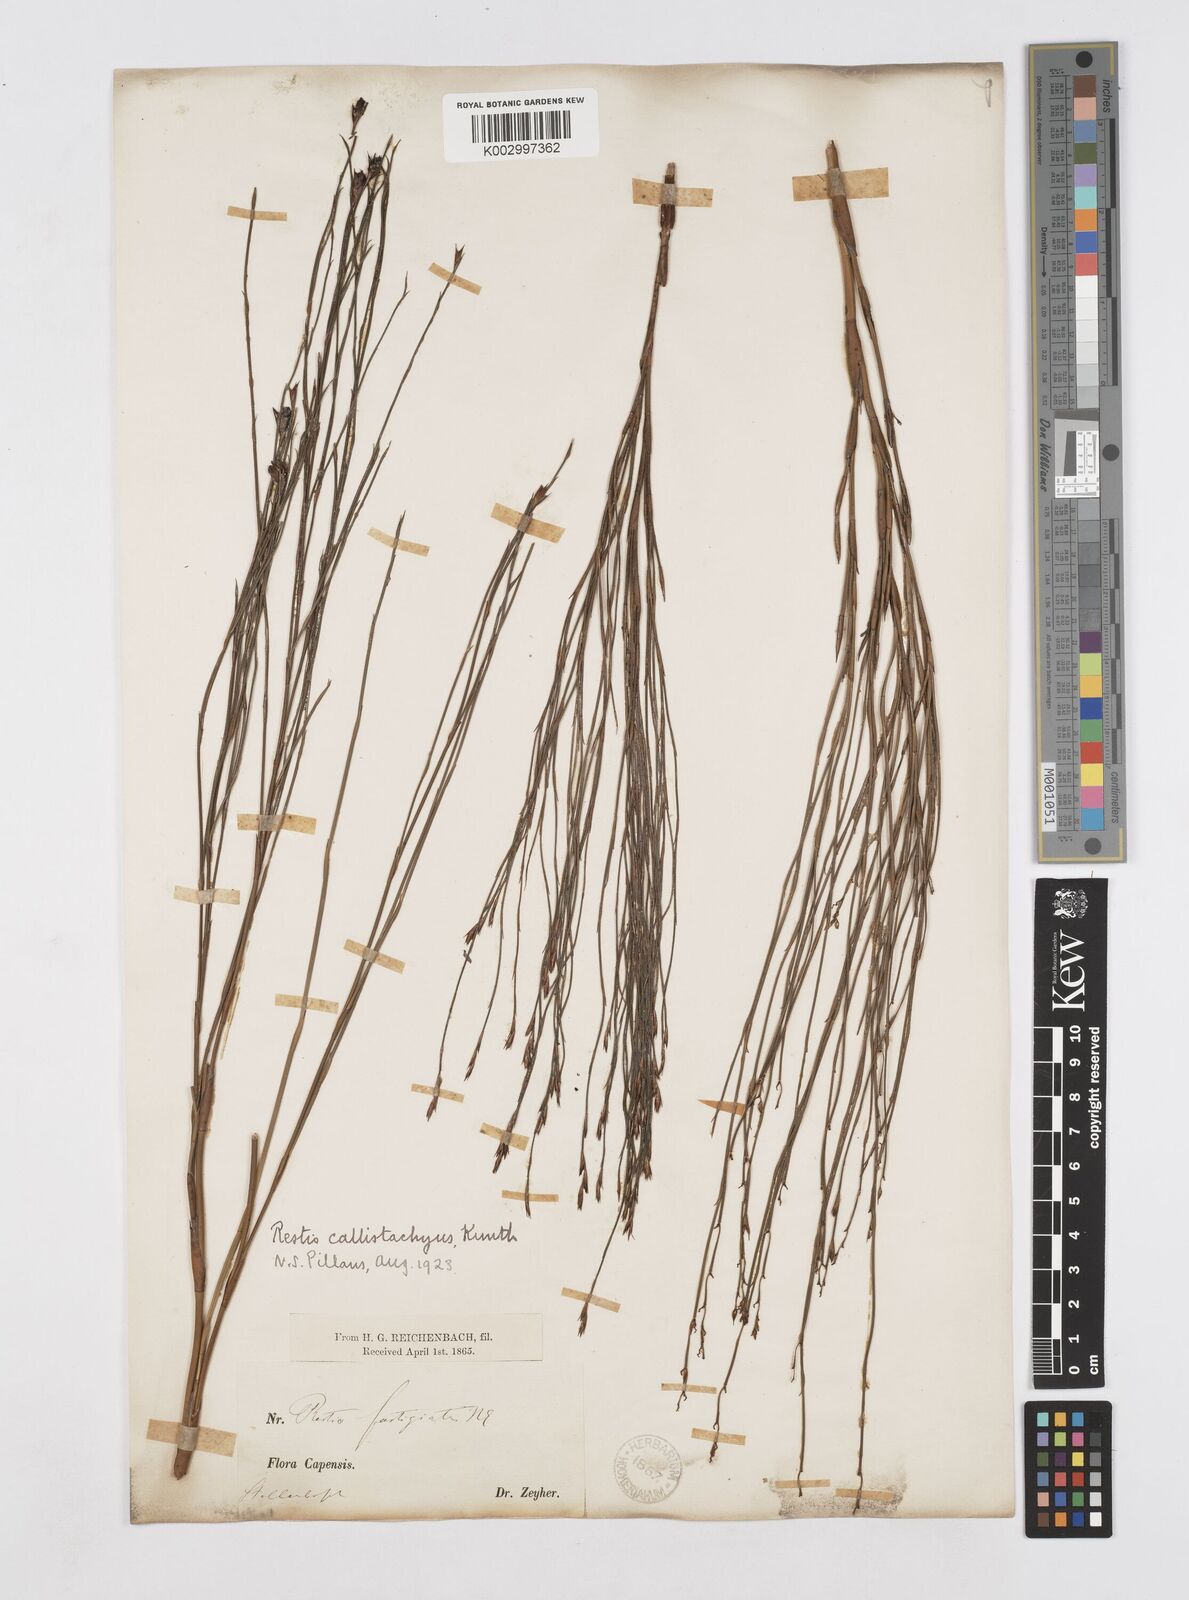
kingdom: Plantae
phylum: Tracheophyta
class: Liliopsida
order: Poales
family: Restionaceae
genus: Platycaulos
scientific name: Platycaulos callistachyus
